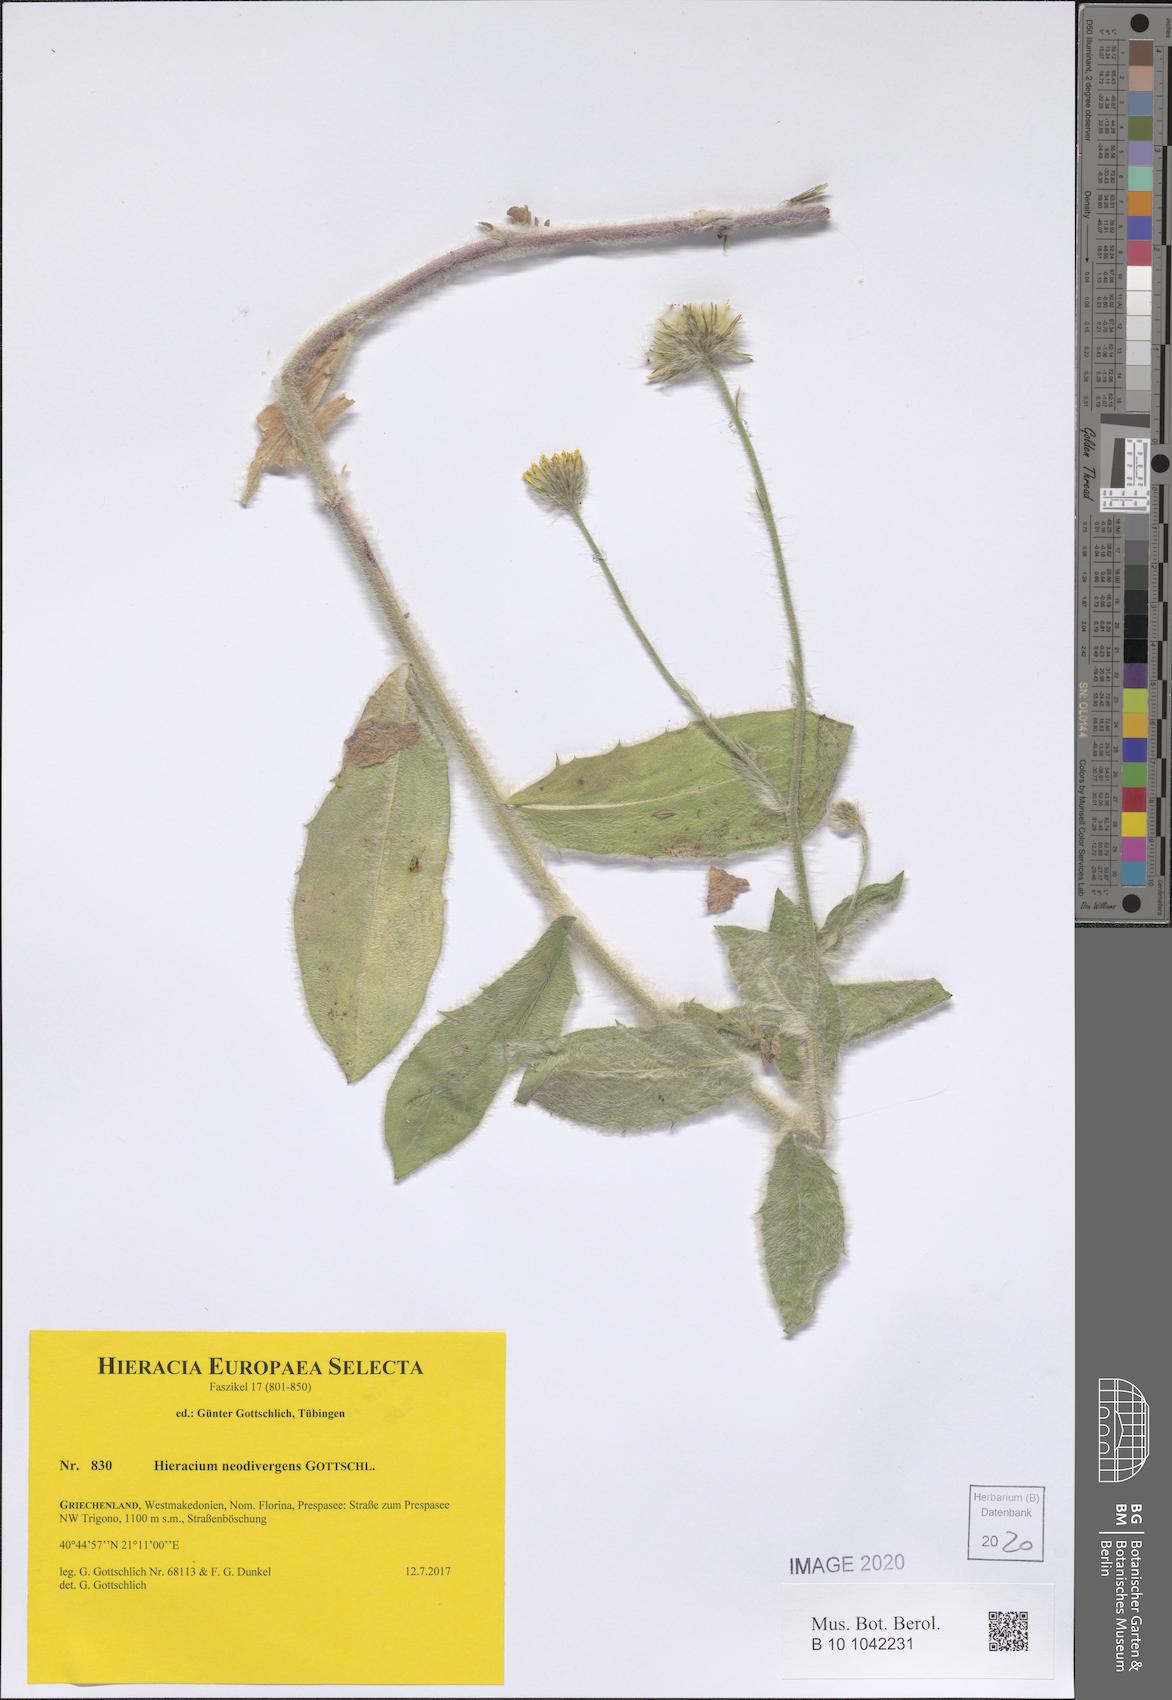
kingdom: Plantae
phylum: Tracheophyta
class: Magnoliopsida
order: Asterales
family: Asteraceae
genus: Hieracium
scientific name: Hieracium neodivergens
